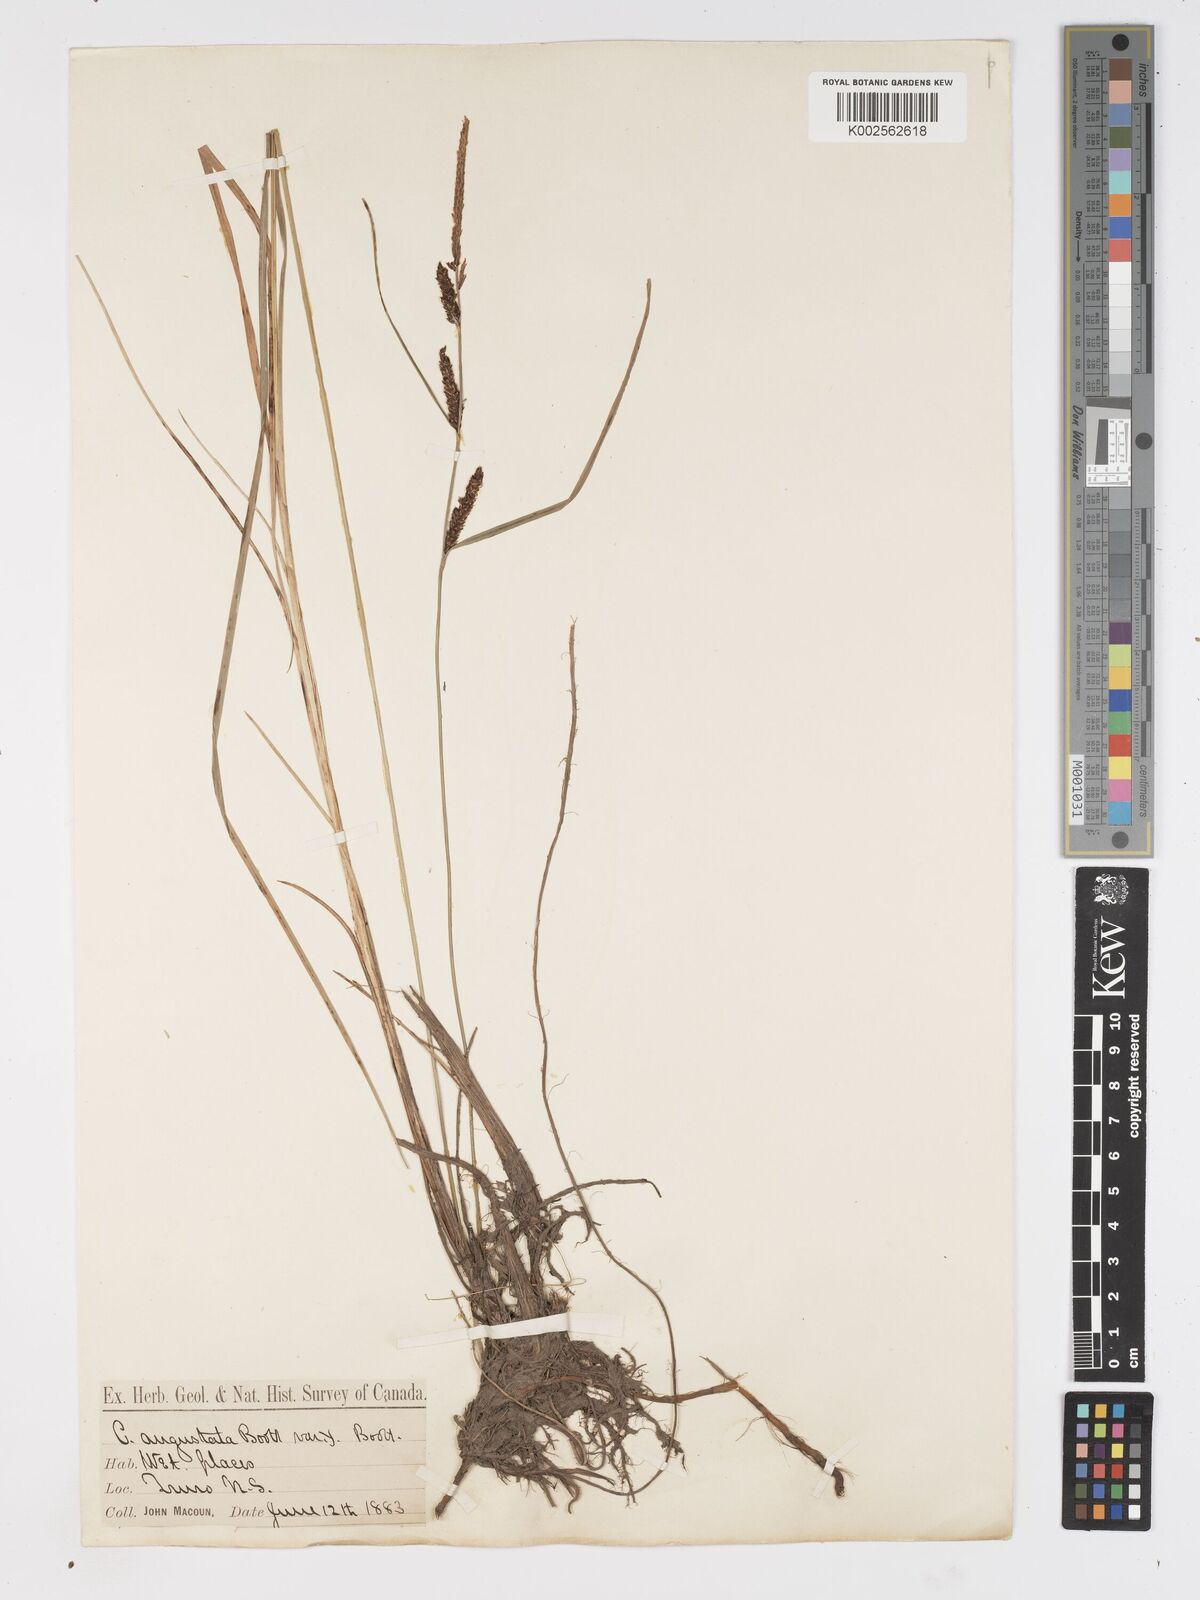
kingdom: Plantae
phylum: Tracheophyta
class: Liliopsida
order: Poales
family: Cyperaceae
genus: Carex
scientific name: Carex stricta
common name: Hummock sedge
